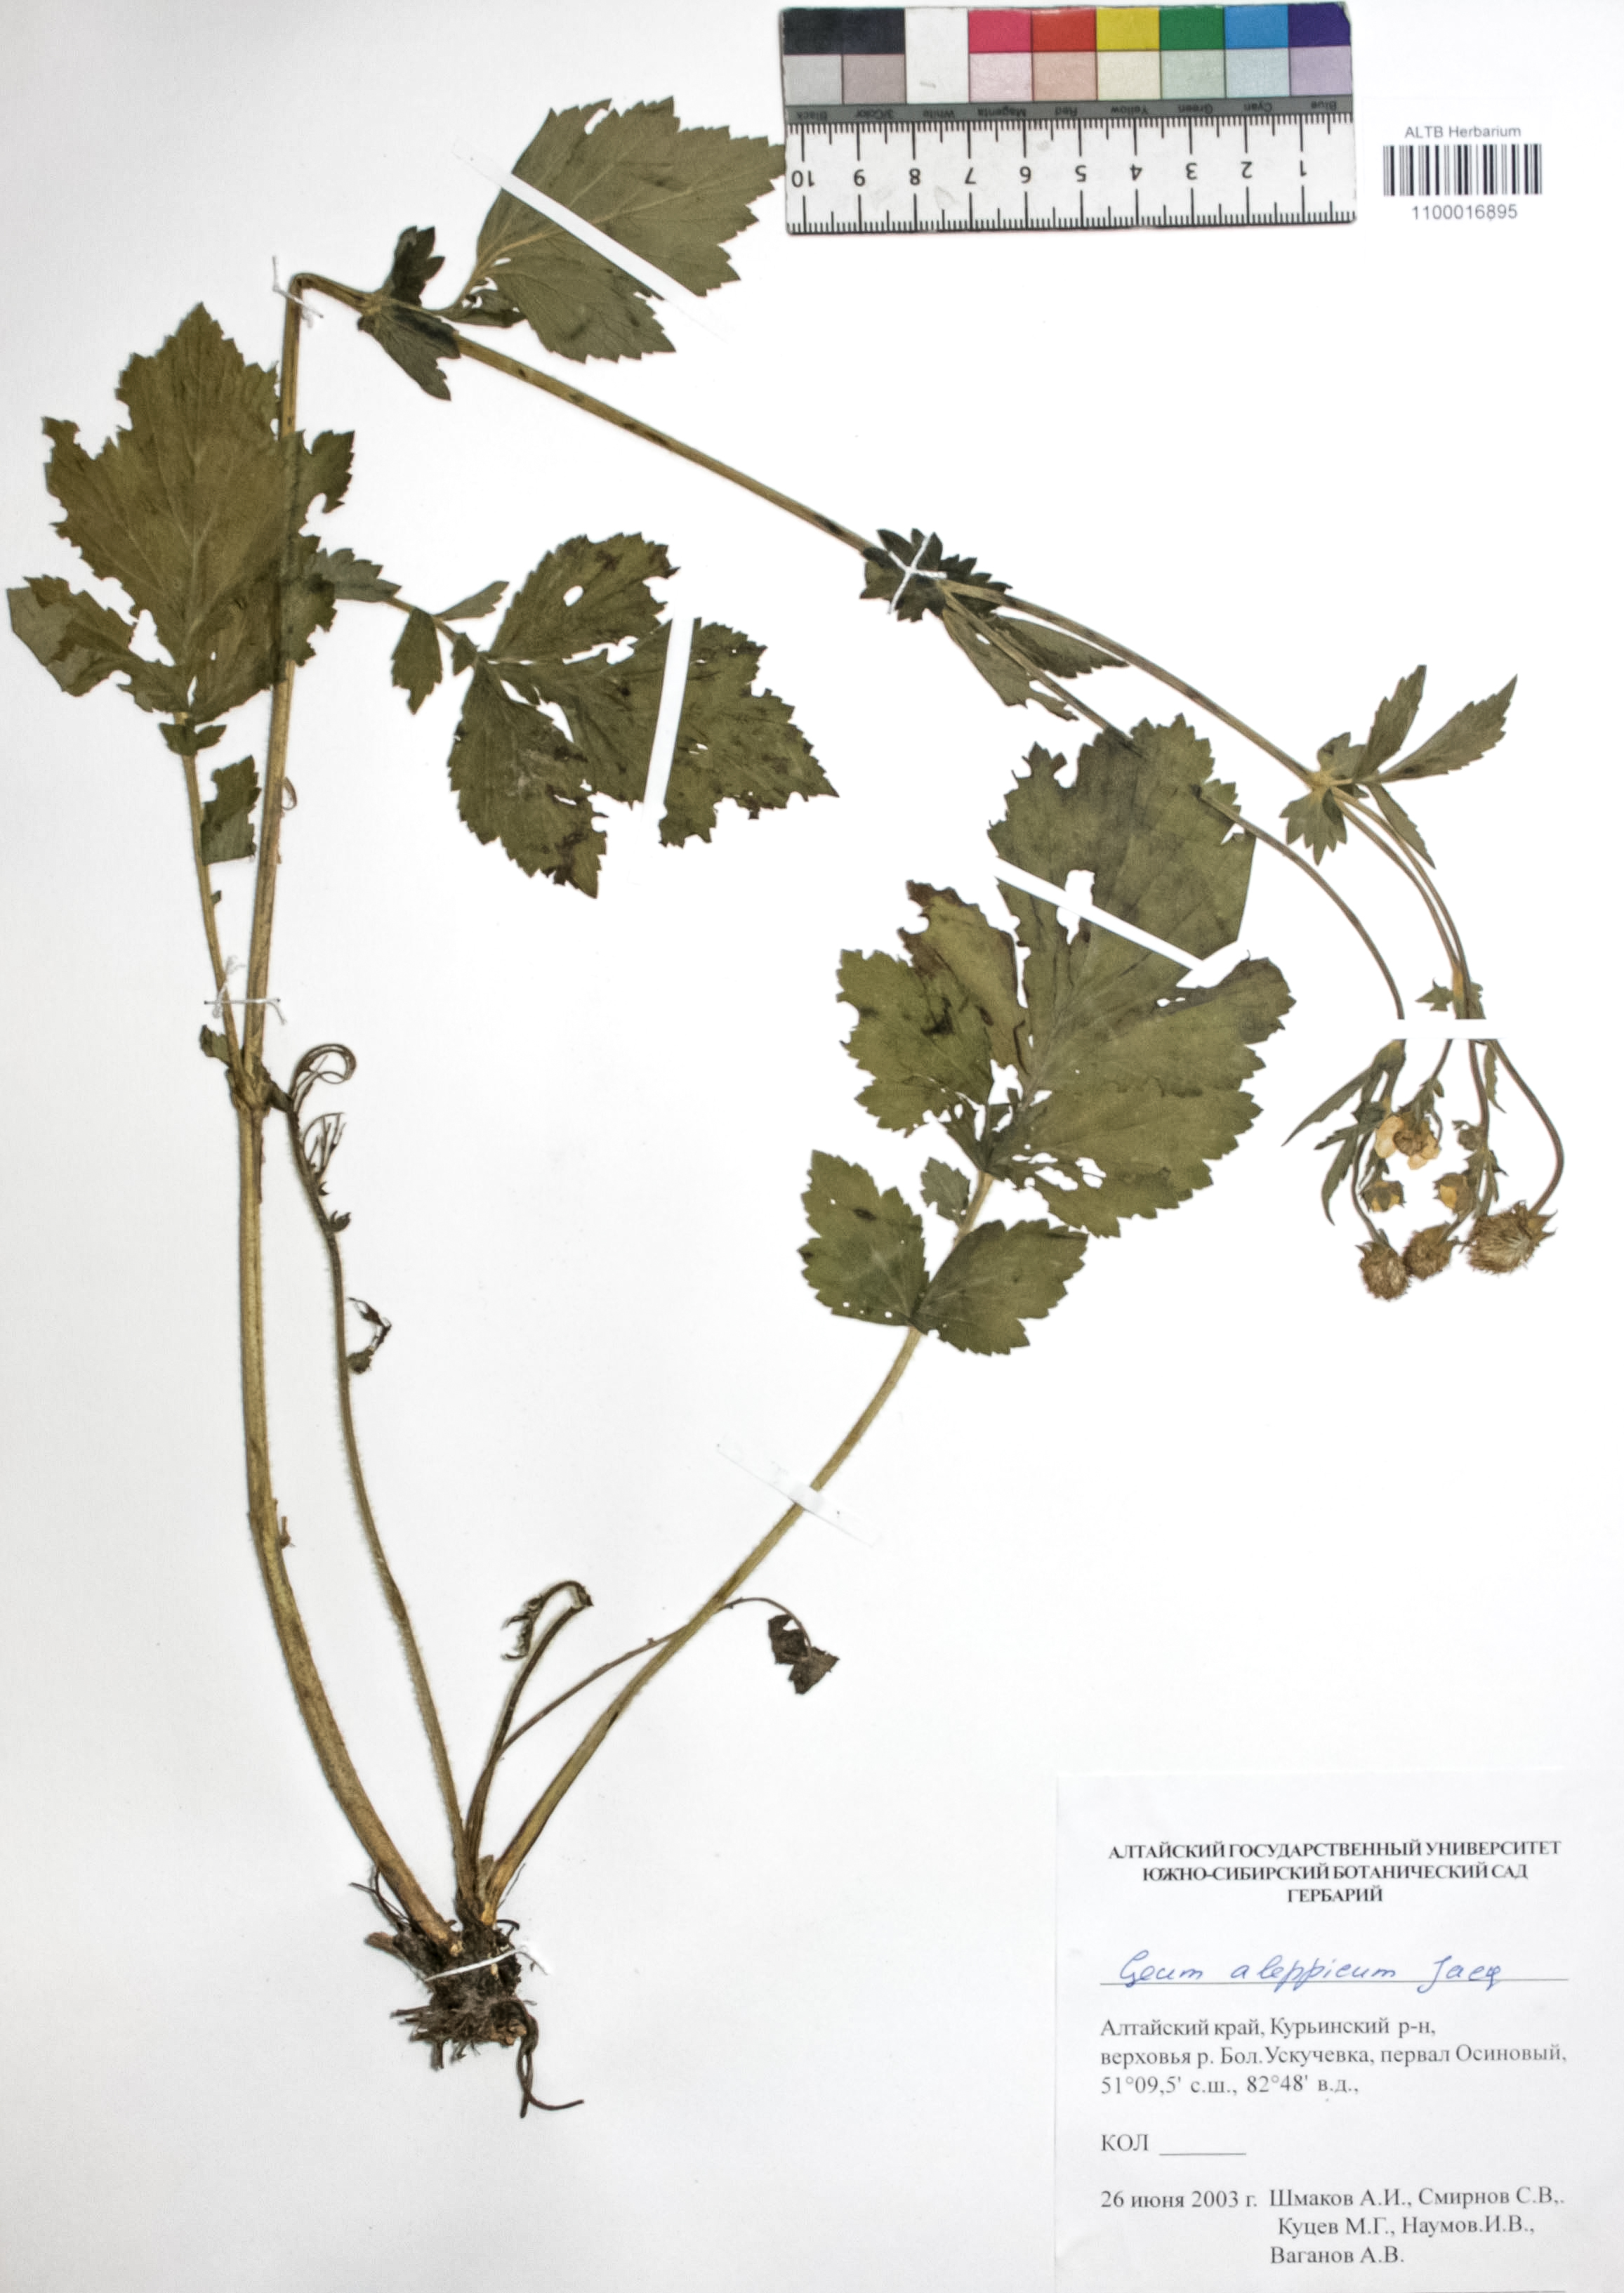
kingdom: Plantae
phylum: Tracheophyta
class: Magnoliopsida
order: Rosales
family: Rosaceae
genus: Geum
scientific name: Geum aleppicum
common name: Yellow avens
